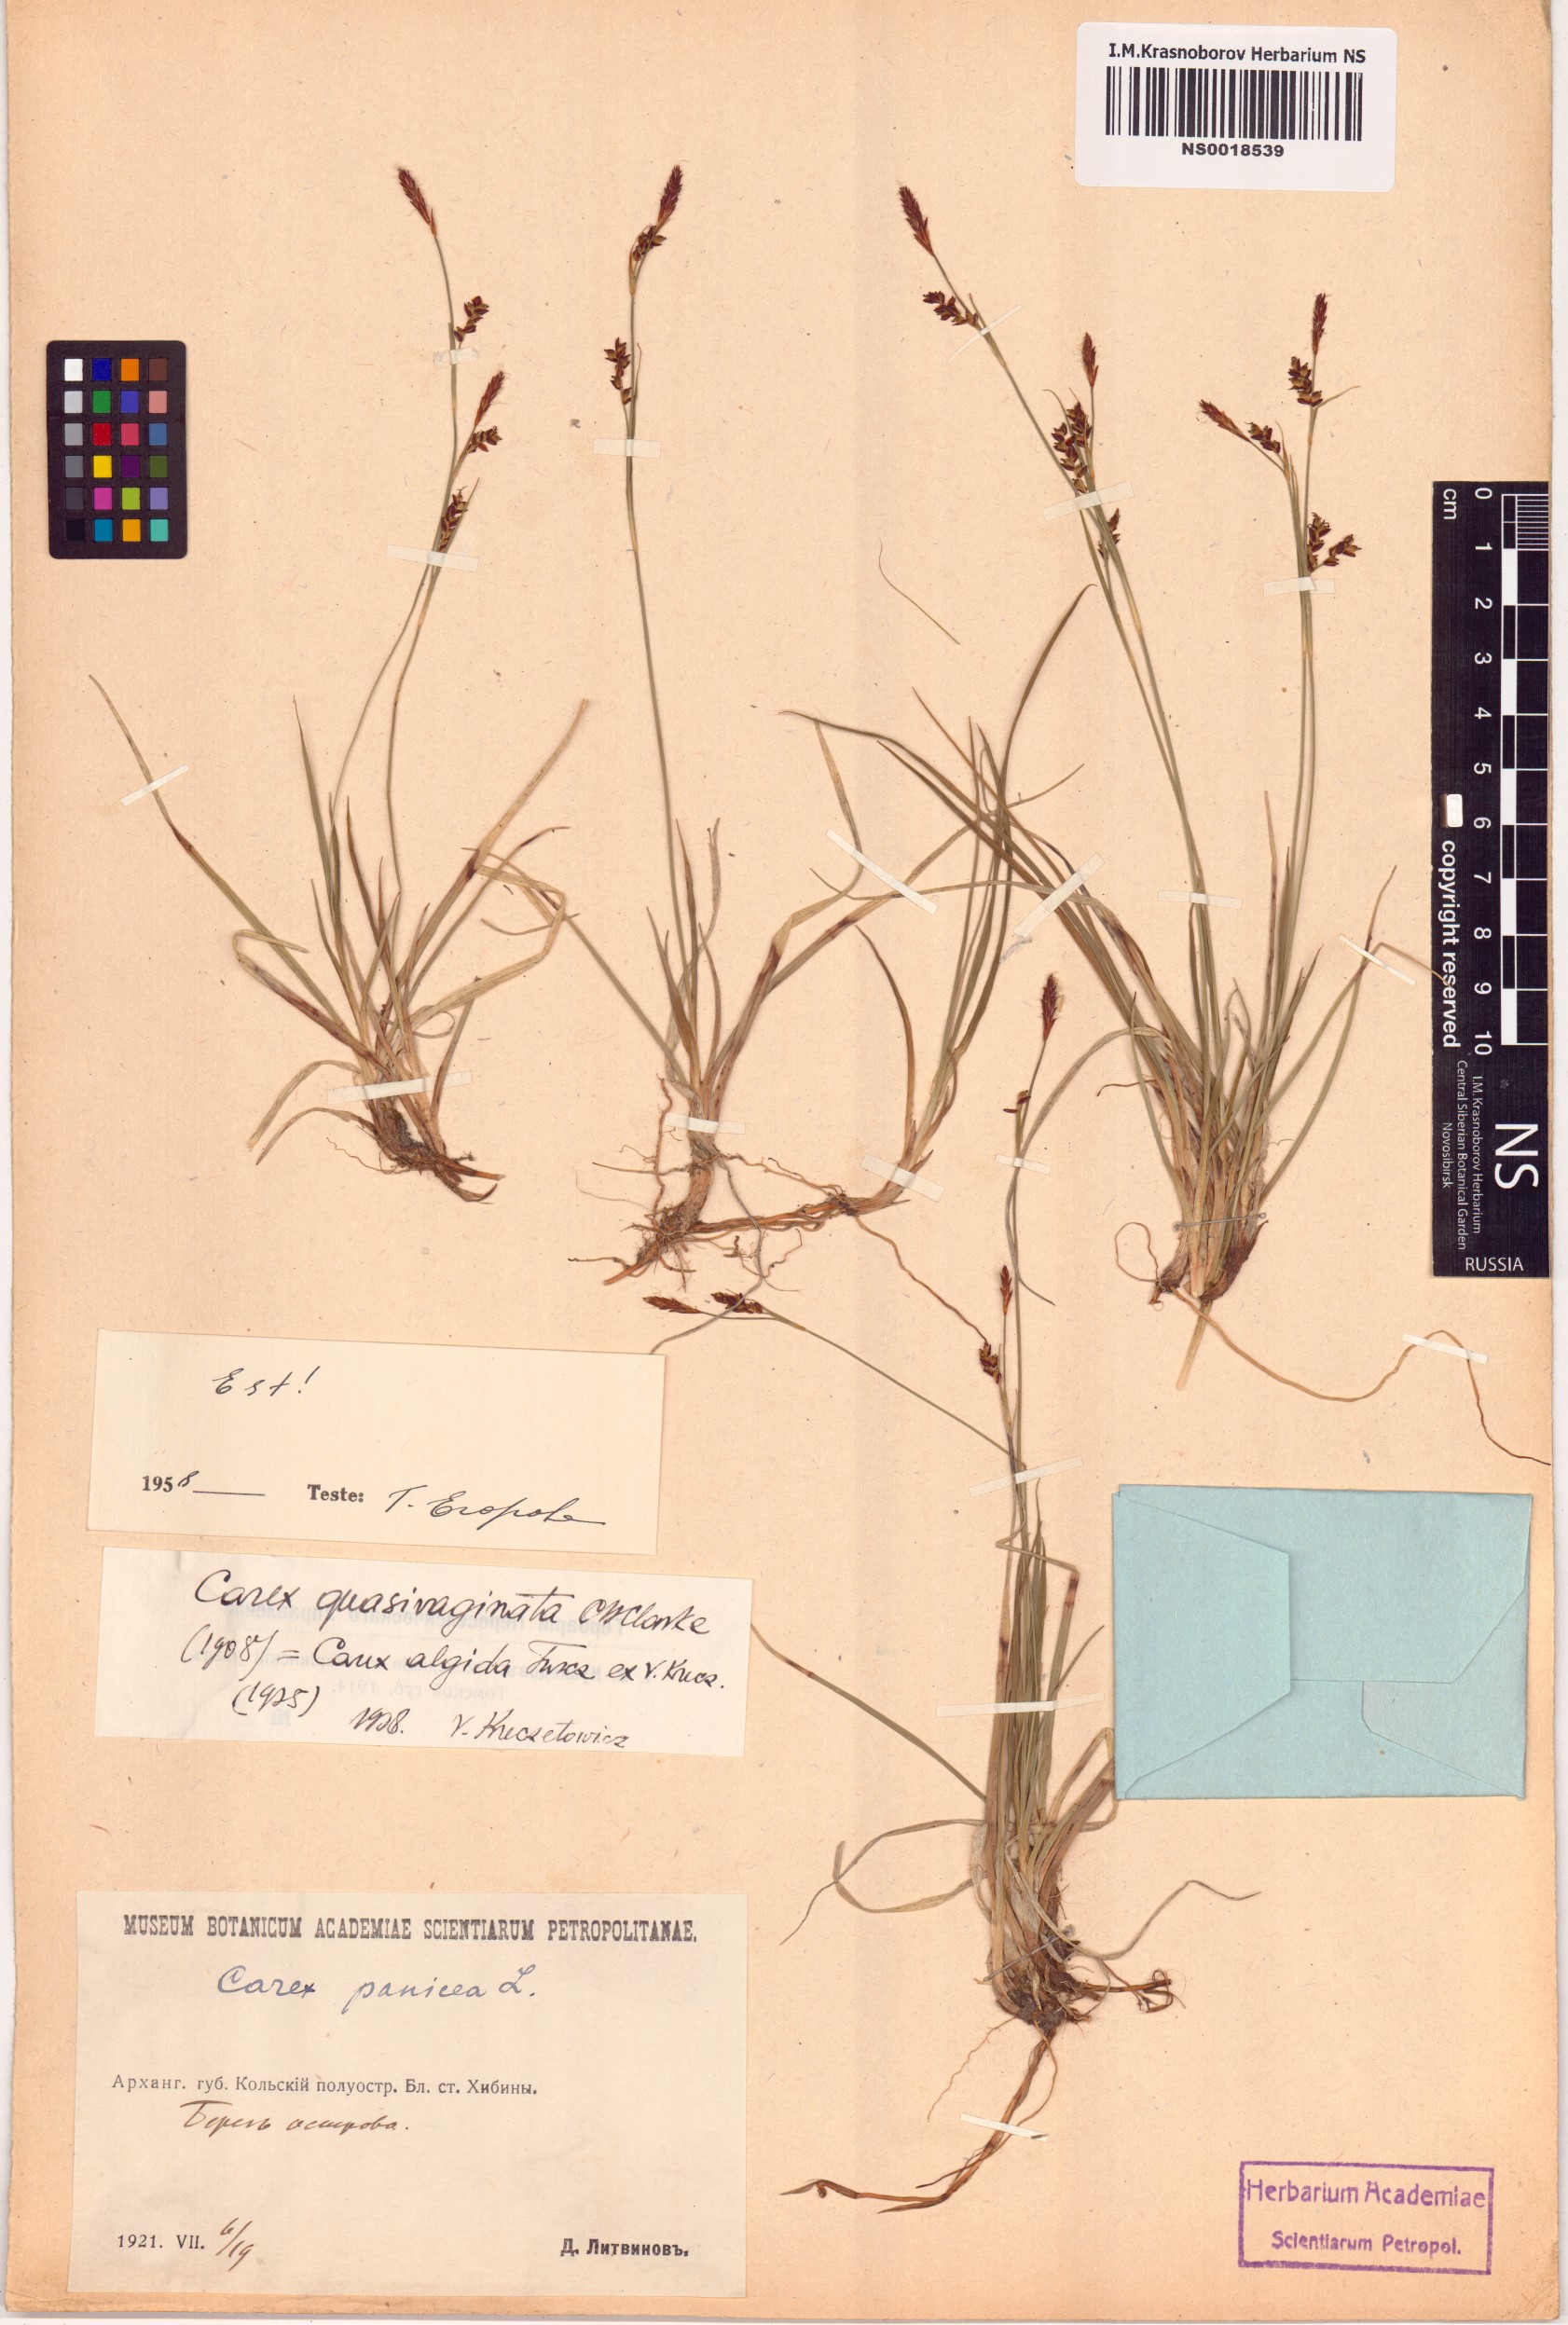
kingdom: Plantae
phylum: Tracheophyta
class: Liliopsida
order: Poales
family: Cyperaceae
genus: Carex
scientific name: Carex algida
